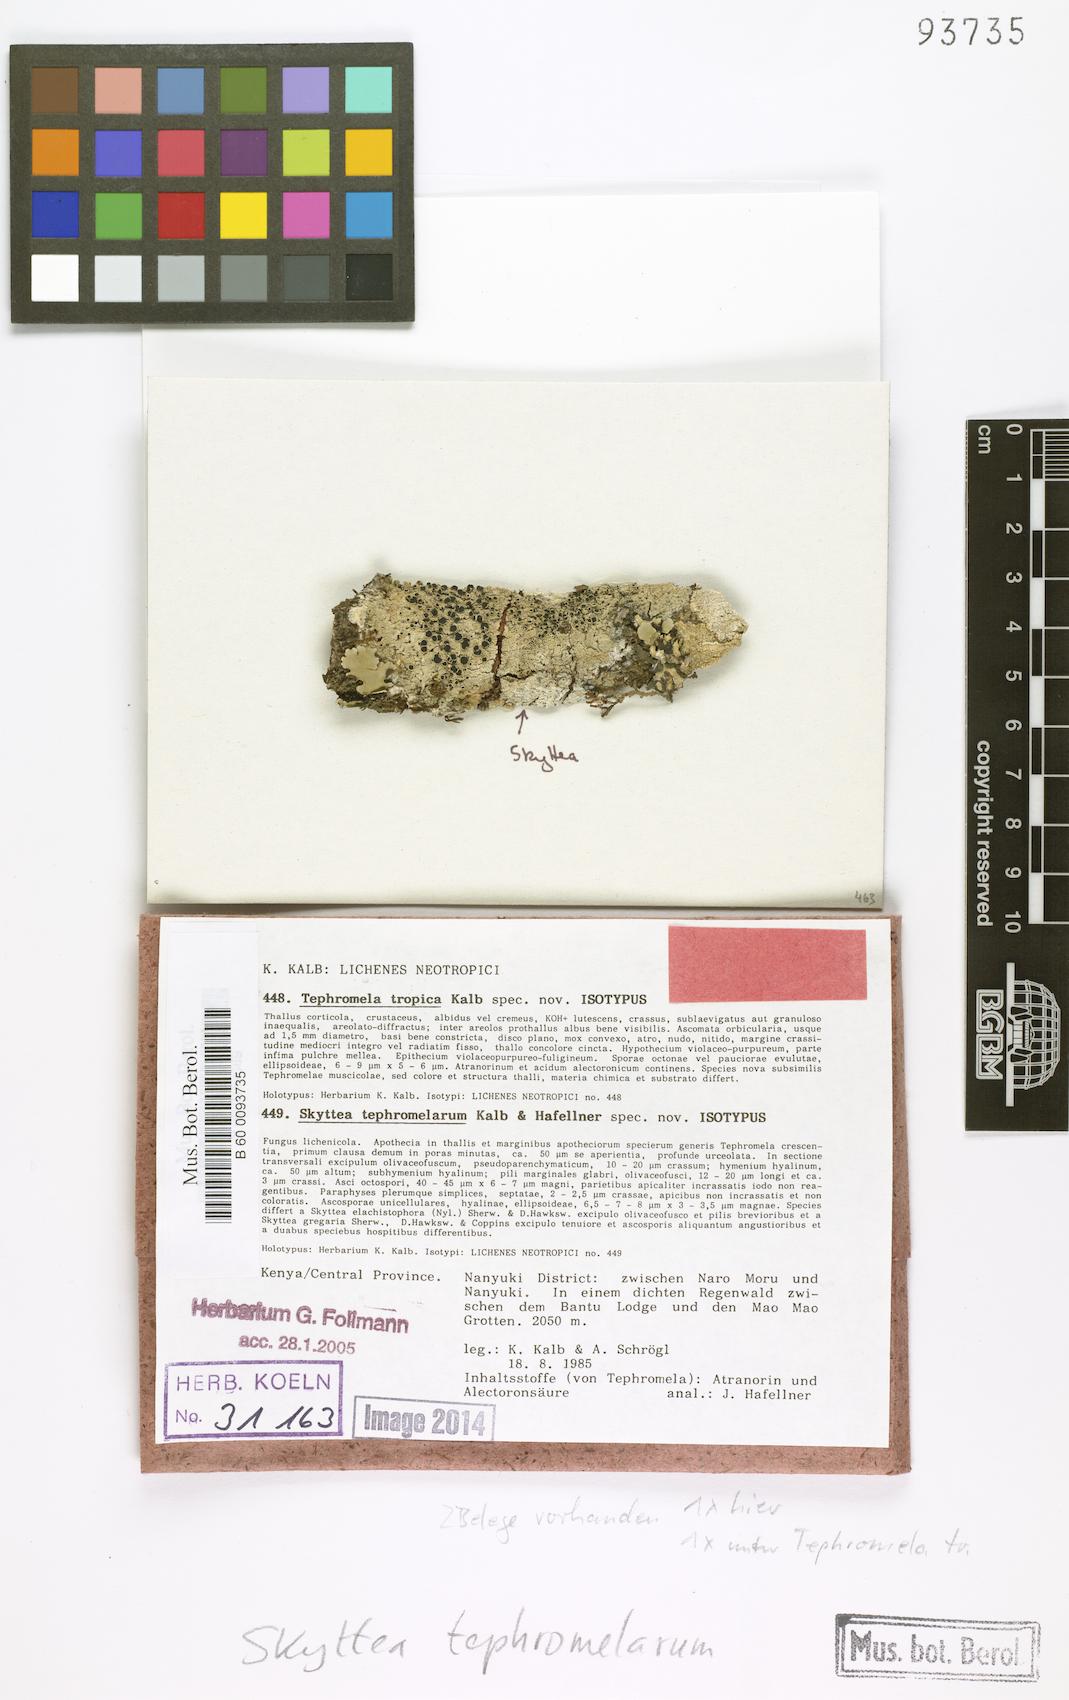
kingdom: Fungi
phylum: Ascomycota
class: Leotiomycetes
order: Helotiales
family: Cordieritidaceae
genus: Skyttea
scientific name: Skyttea elachistophora
